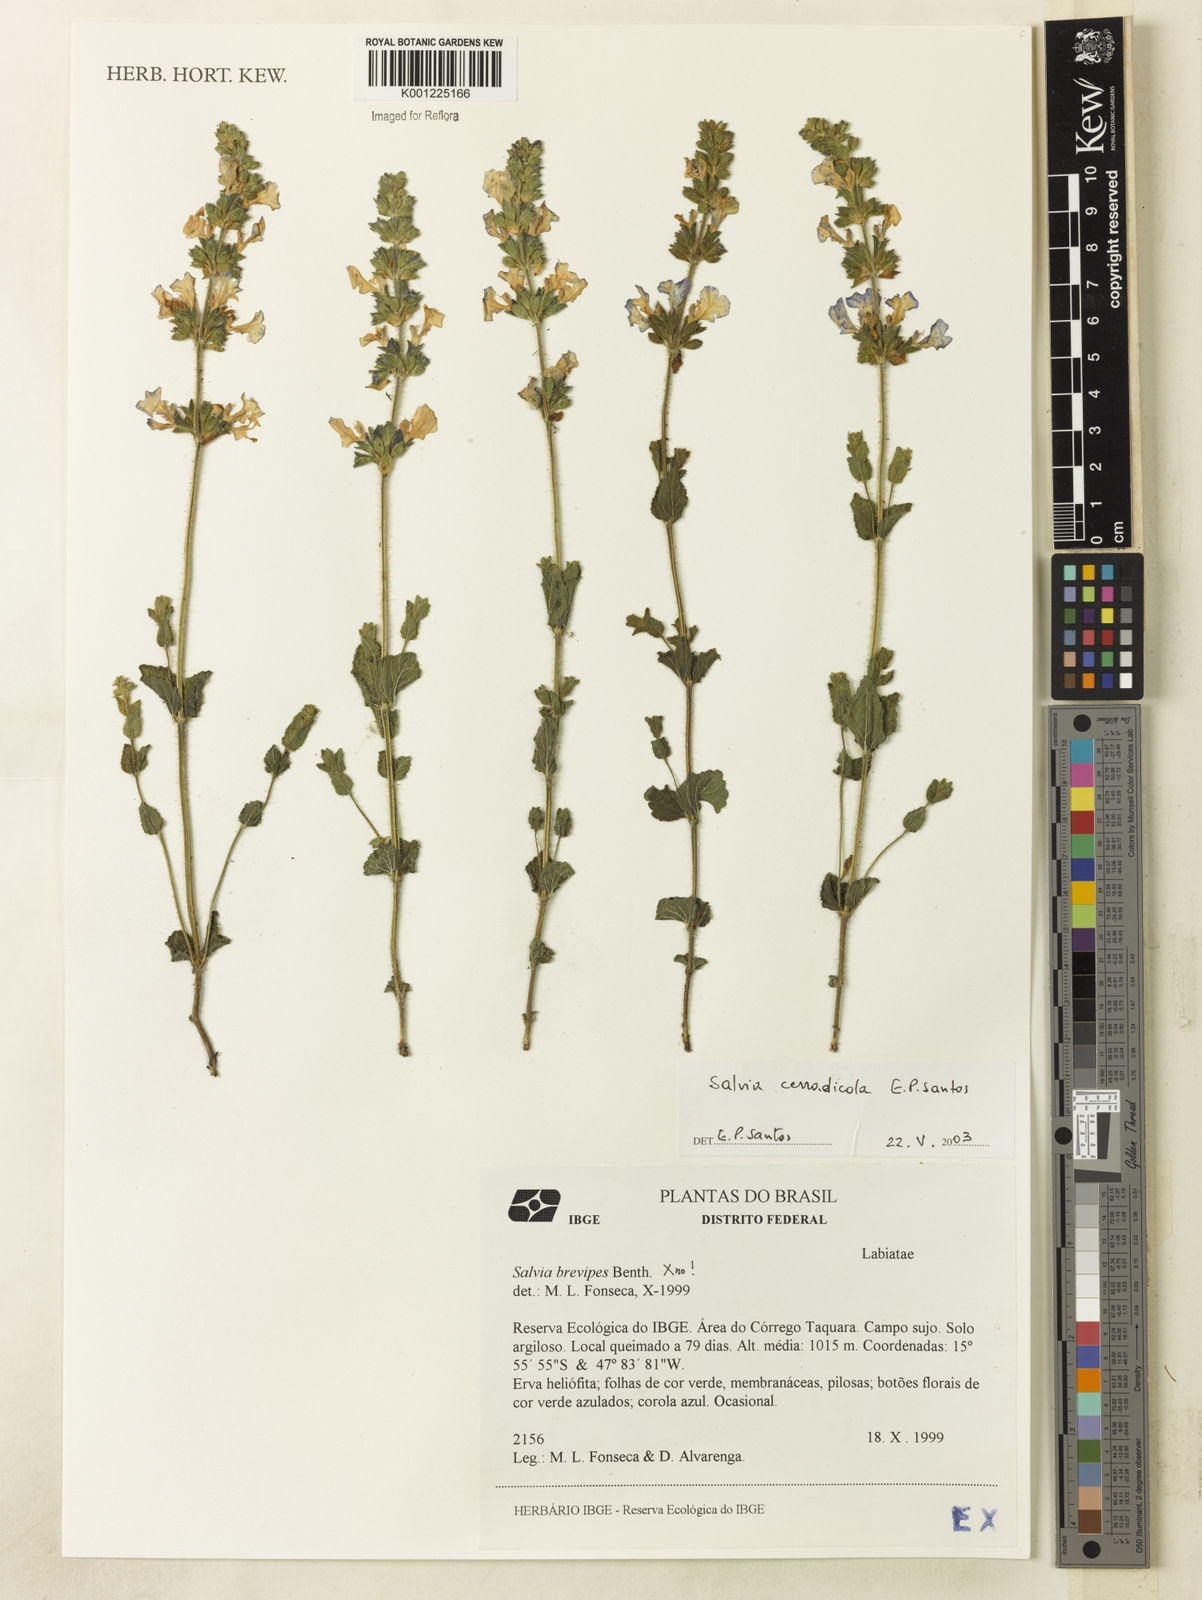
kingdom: Plantae
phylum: Tracheophyta
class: Magnoliopsida
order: Lamiales
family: Lamiaceae
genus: Salvia
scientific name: Salvia cerradicola
